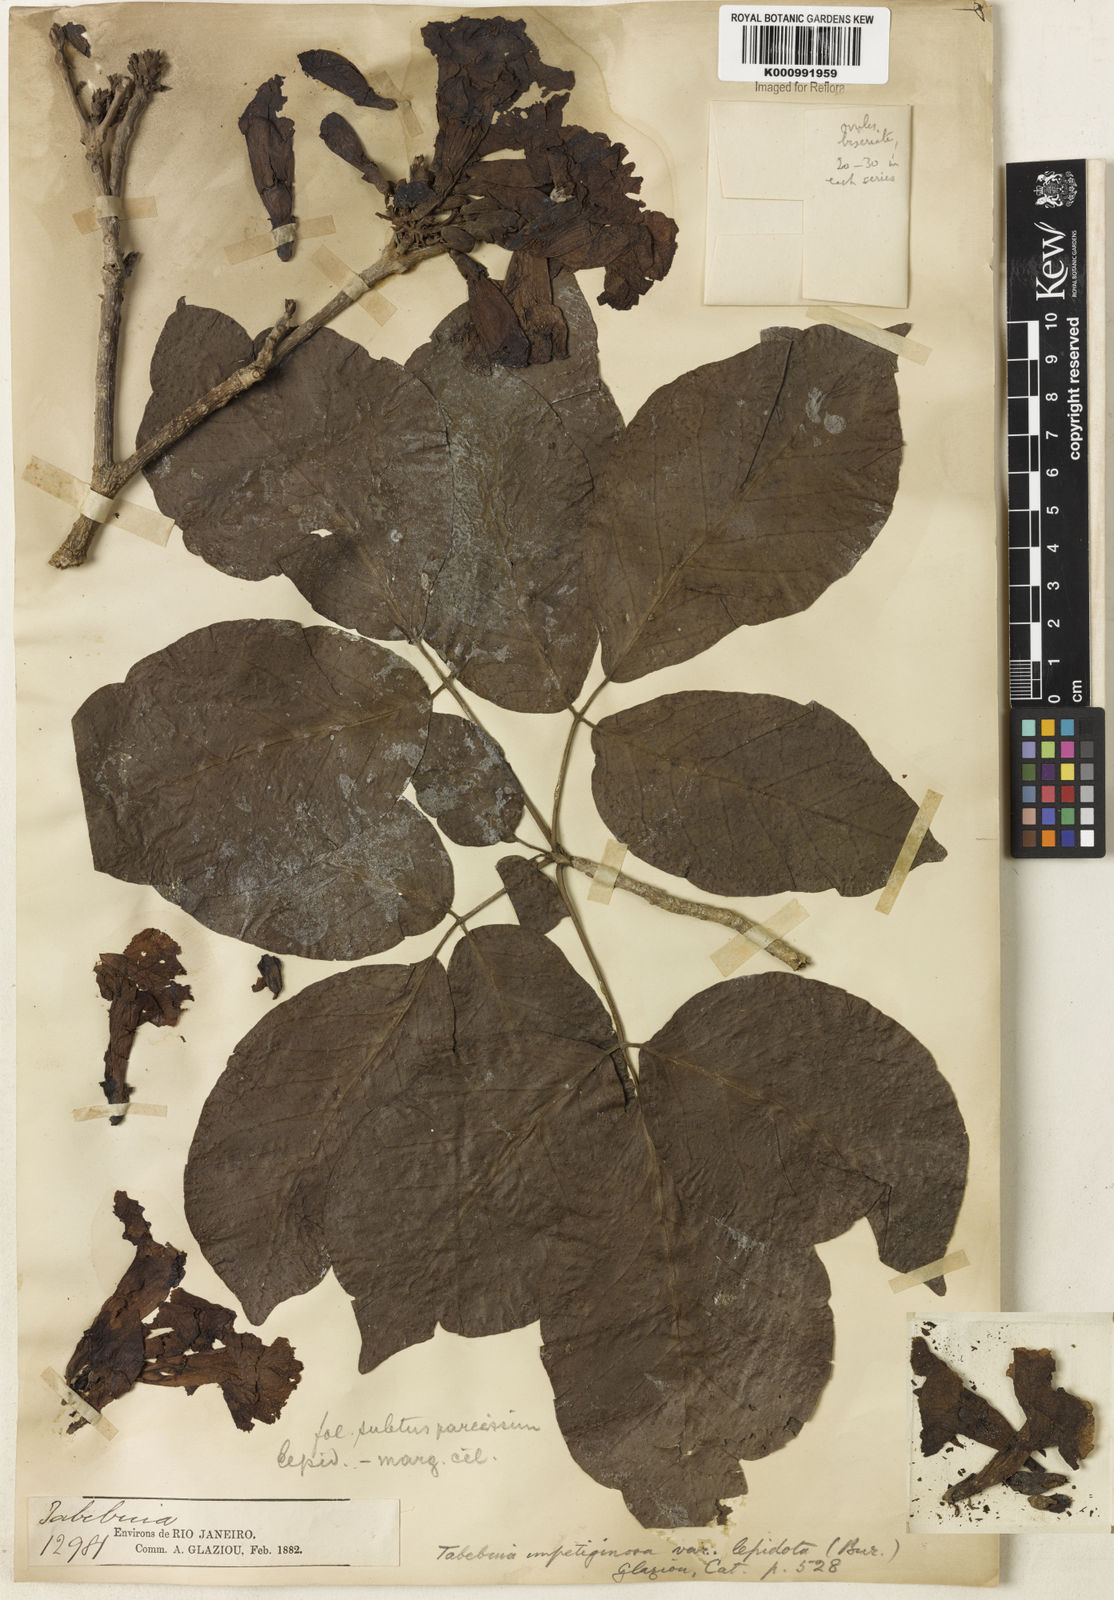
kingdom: Plantae
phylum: Tracheophyta
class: Magnoliopsida
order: Lamiales
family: Bignoniaceae
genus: Tabebuia
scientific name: Tabebuia roseoalba
